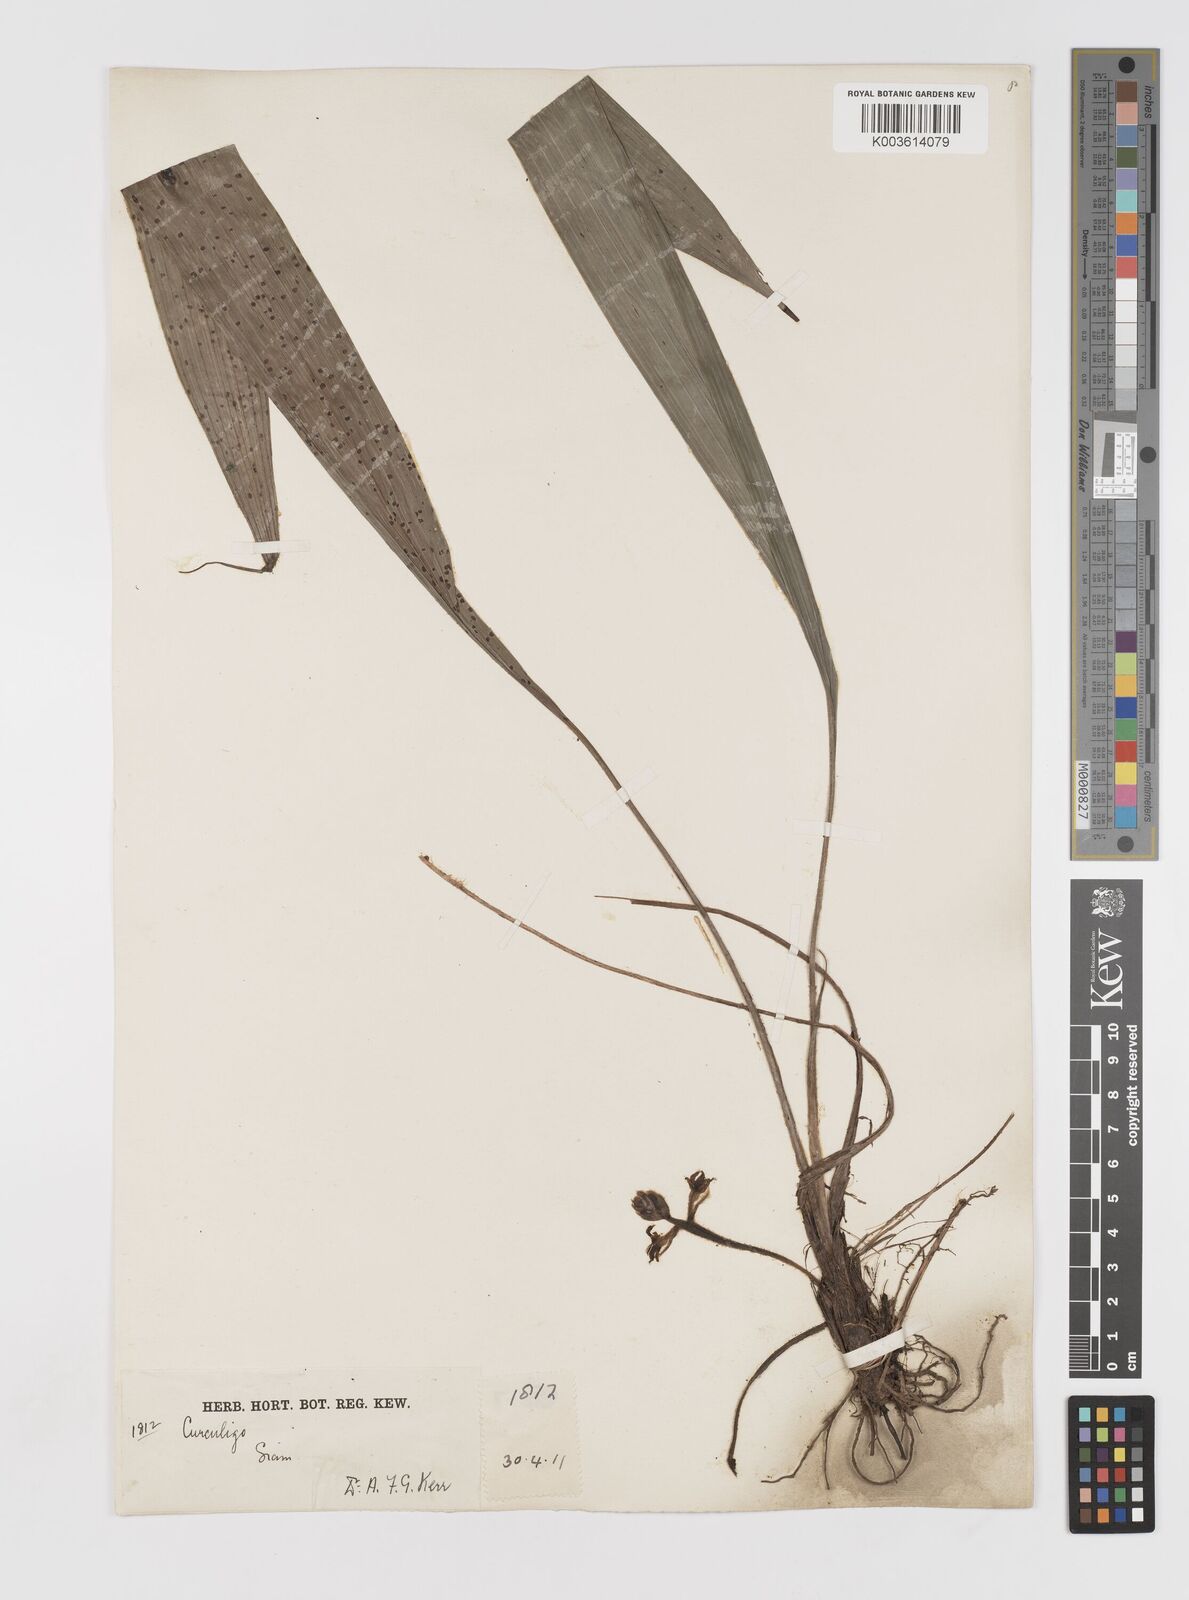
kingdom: Plantae
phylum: Tracheophyta
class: Liliopsida
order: Asparagales
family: Hypoxidaceae
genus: Curculigo
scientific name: Curculigo orchioides
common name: Golden eye-grass
